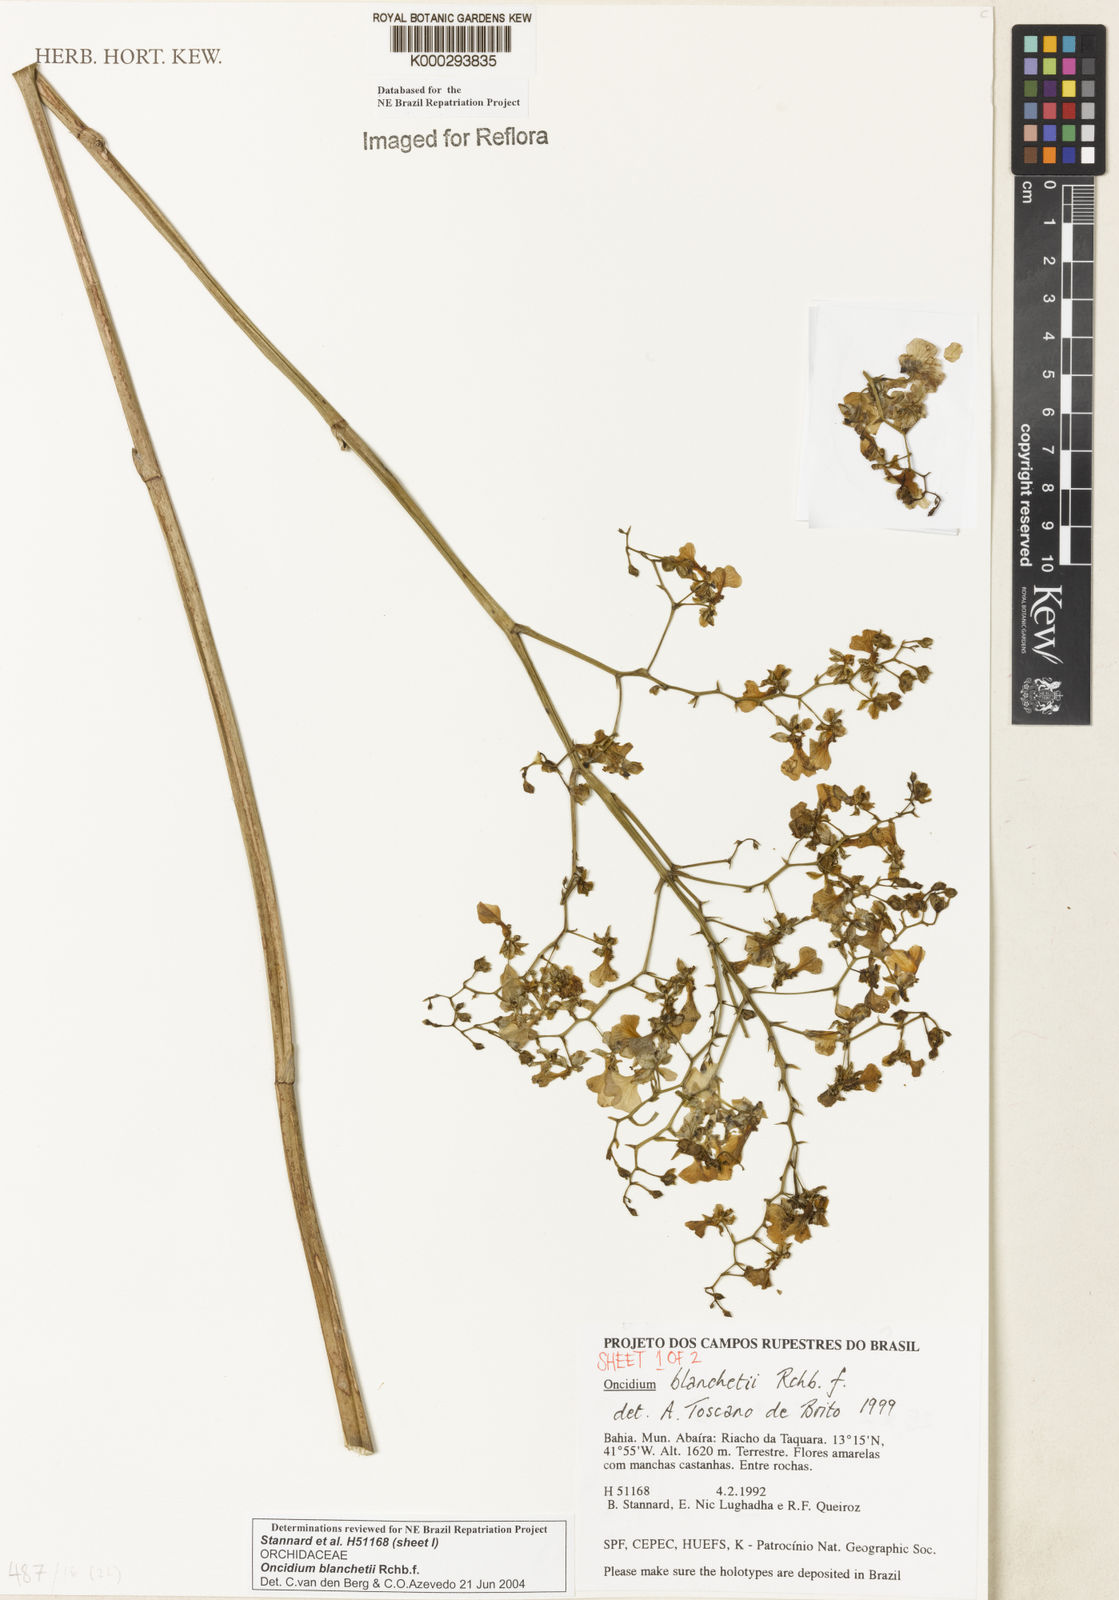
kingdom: Plantae
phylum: Tracheophyta
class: Liliopsida
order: Asparagales
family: Orchidaceae
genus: Gomesa
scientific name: Gomesa ramosa
